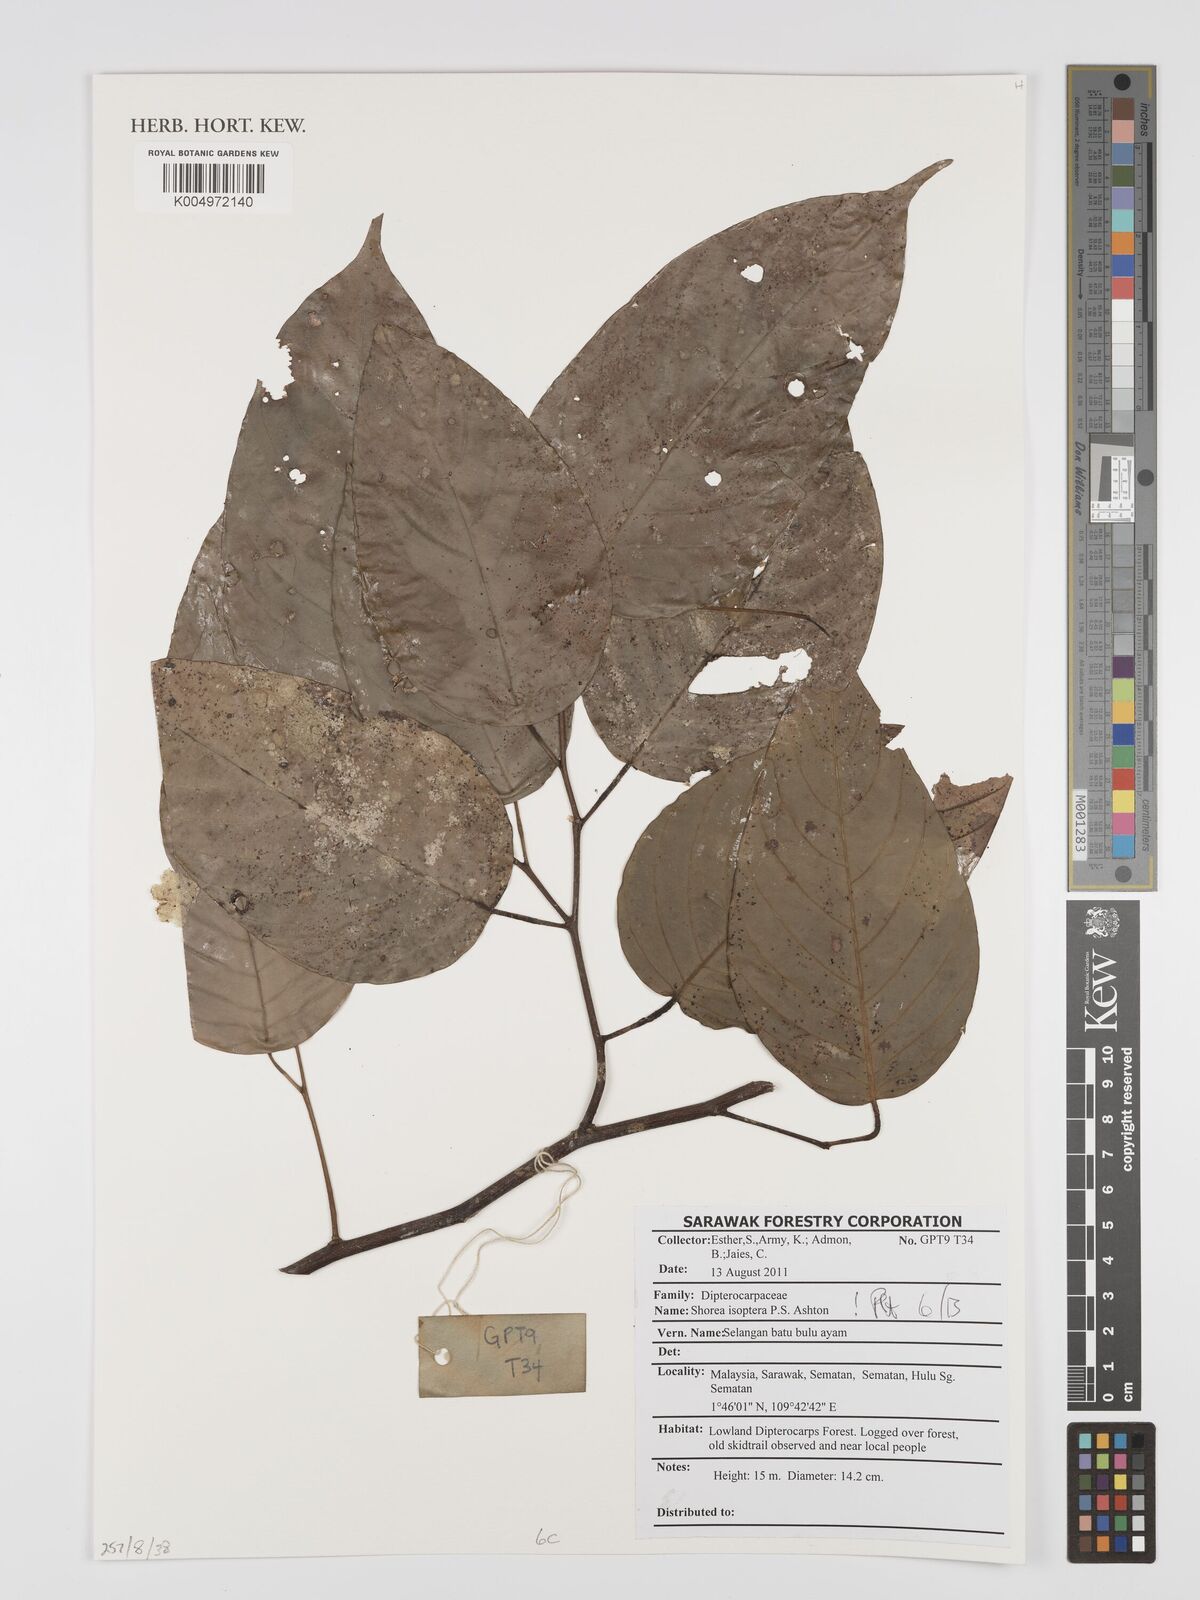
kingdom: Plantae
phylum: Tracheophyta
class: Magnoliopsida
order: Malvales
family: Dipterocarpaceae
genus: Neohopea
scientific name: Neohopea isoptera
